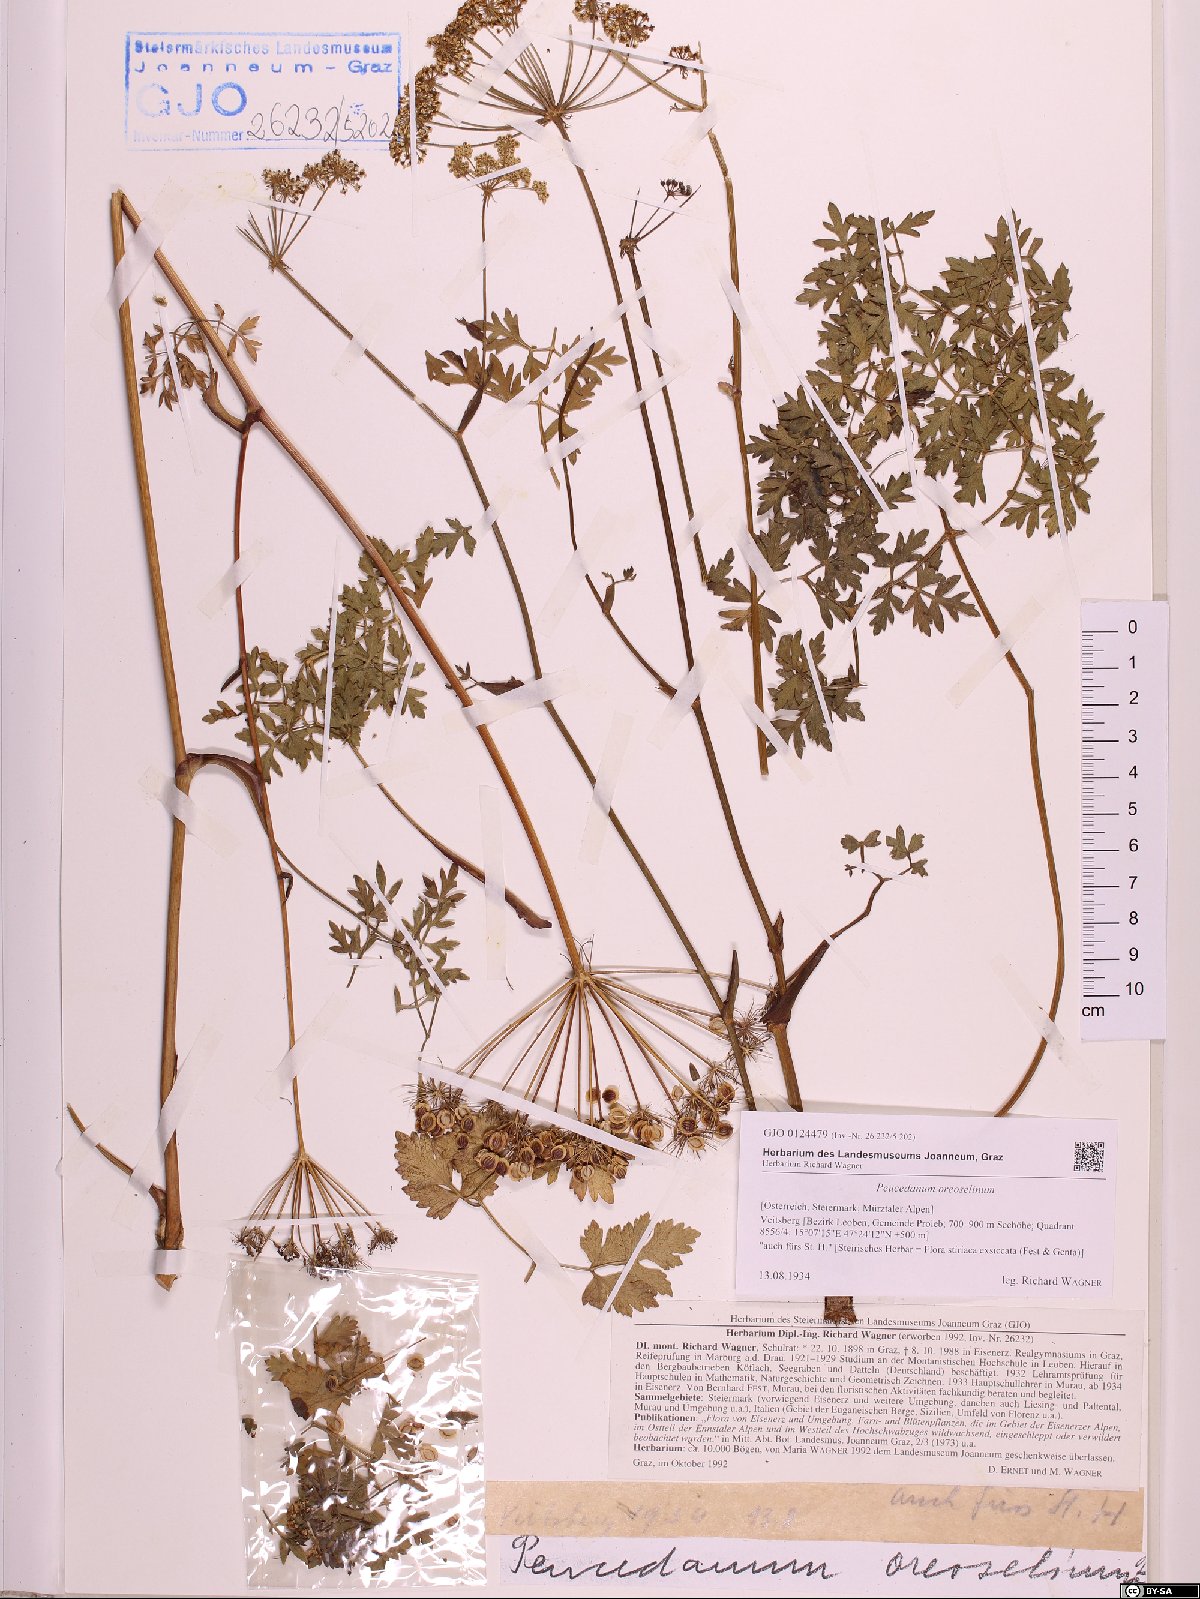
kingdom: Plantae
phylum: Tracheophyta
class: Magnoliopsida
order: Apiales
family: Apiaceae
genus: Oreoselinum
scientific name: Oreoselinum nigrum
